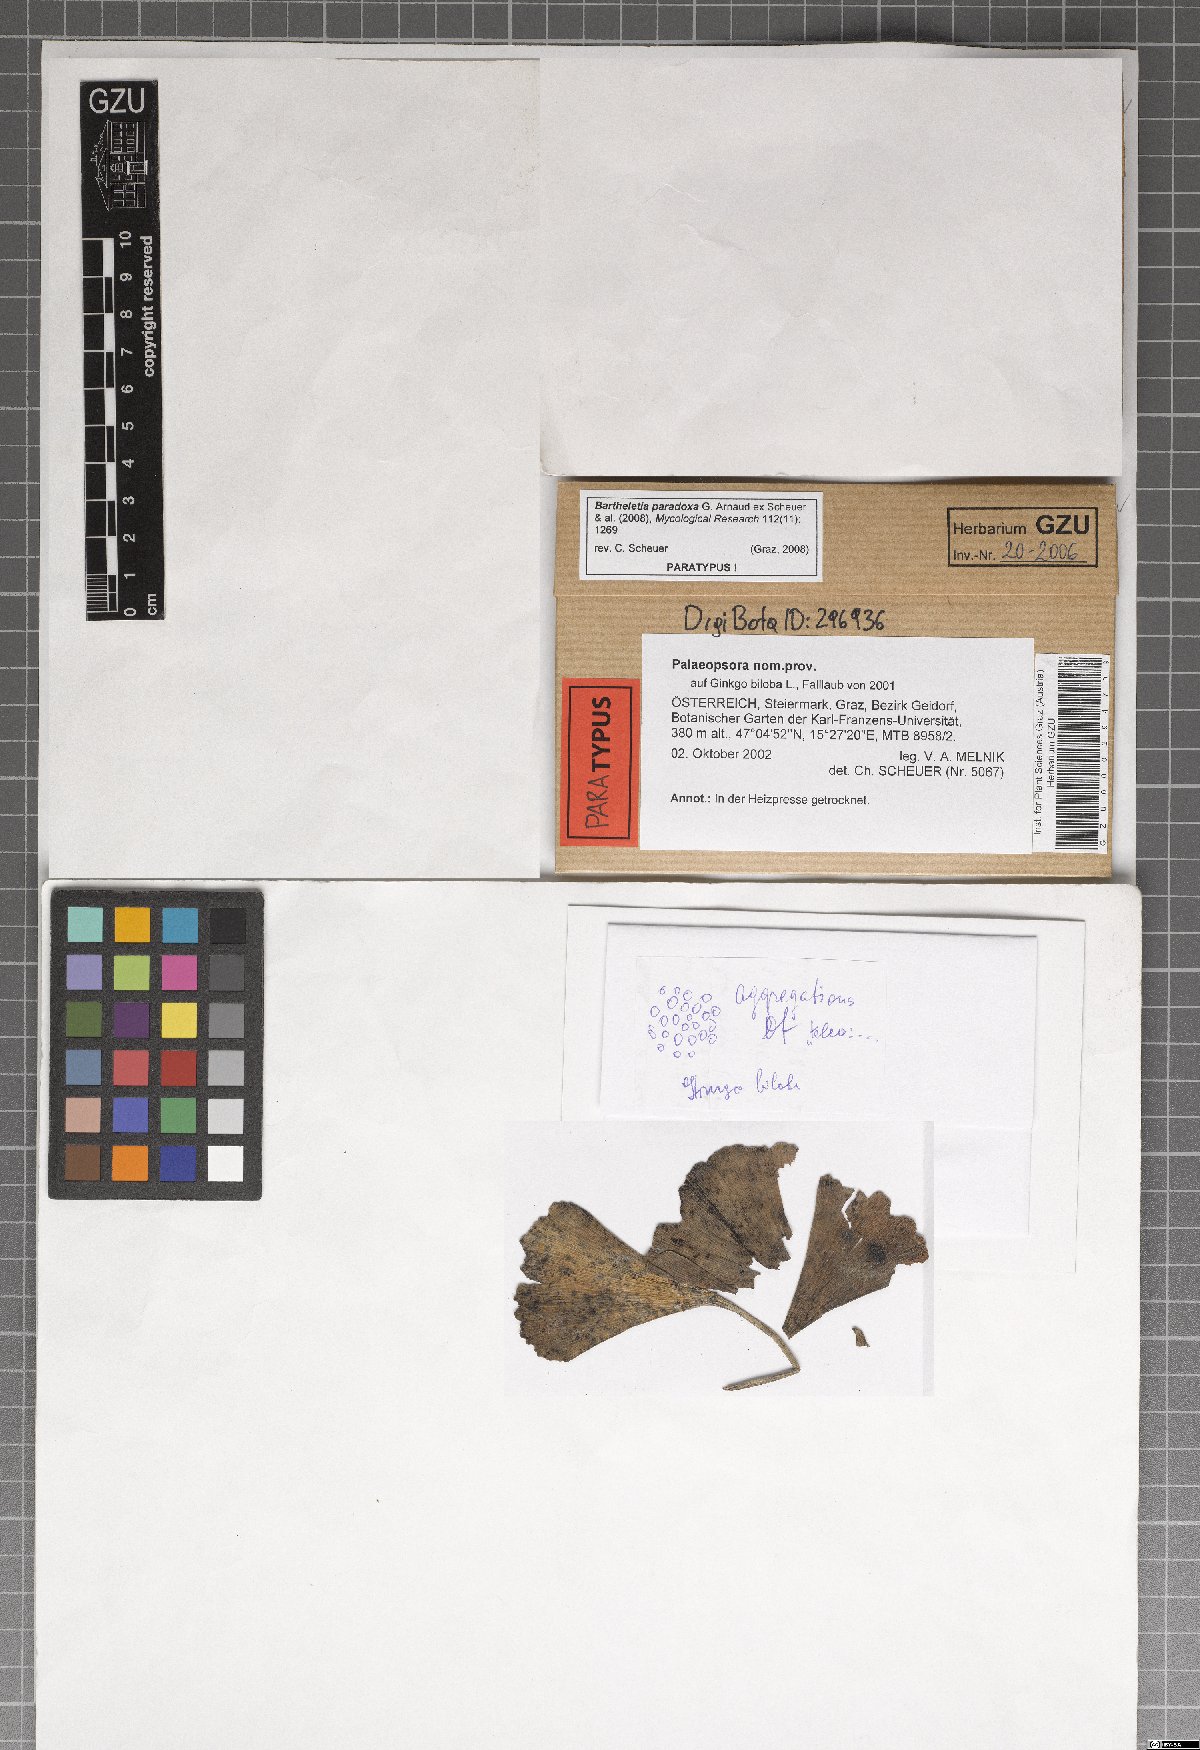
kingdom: Fungi
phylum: Basidiomycota
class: Wallemiomycetes
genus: Bartheletia
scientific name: Bartheletia paradoxa
